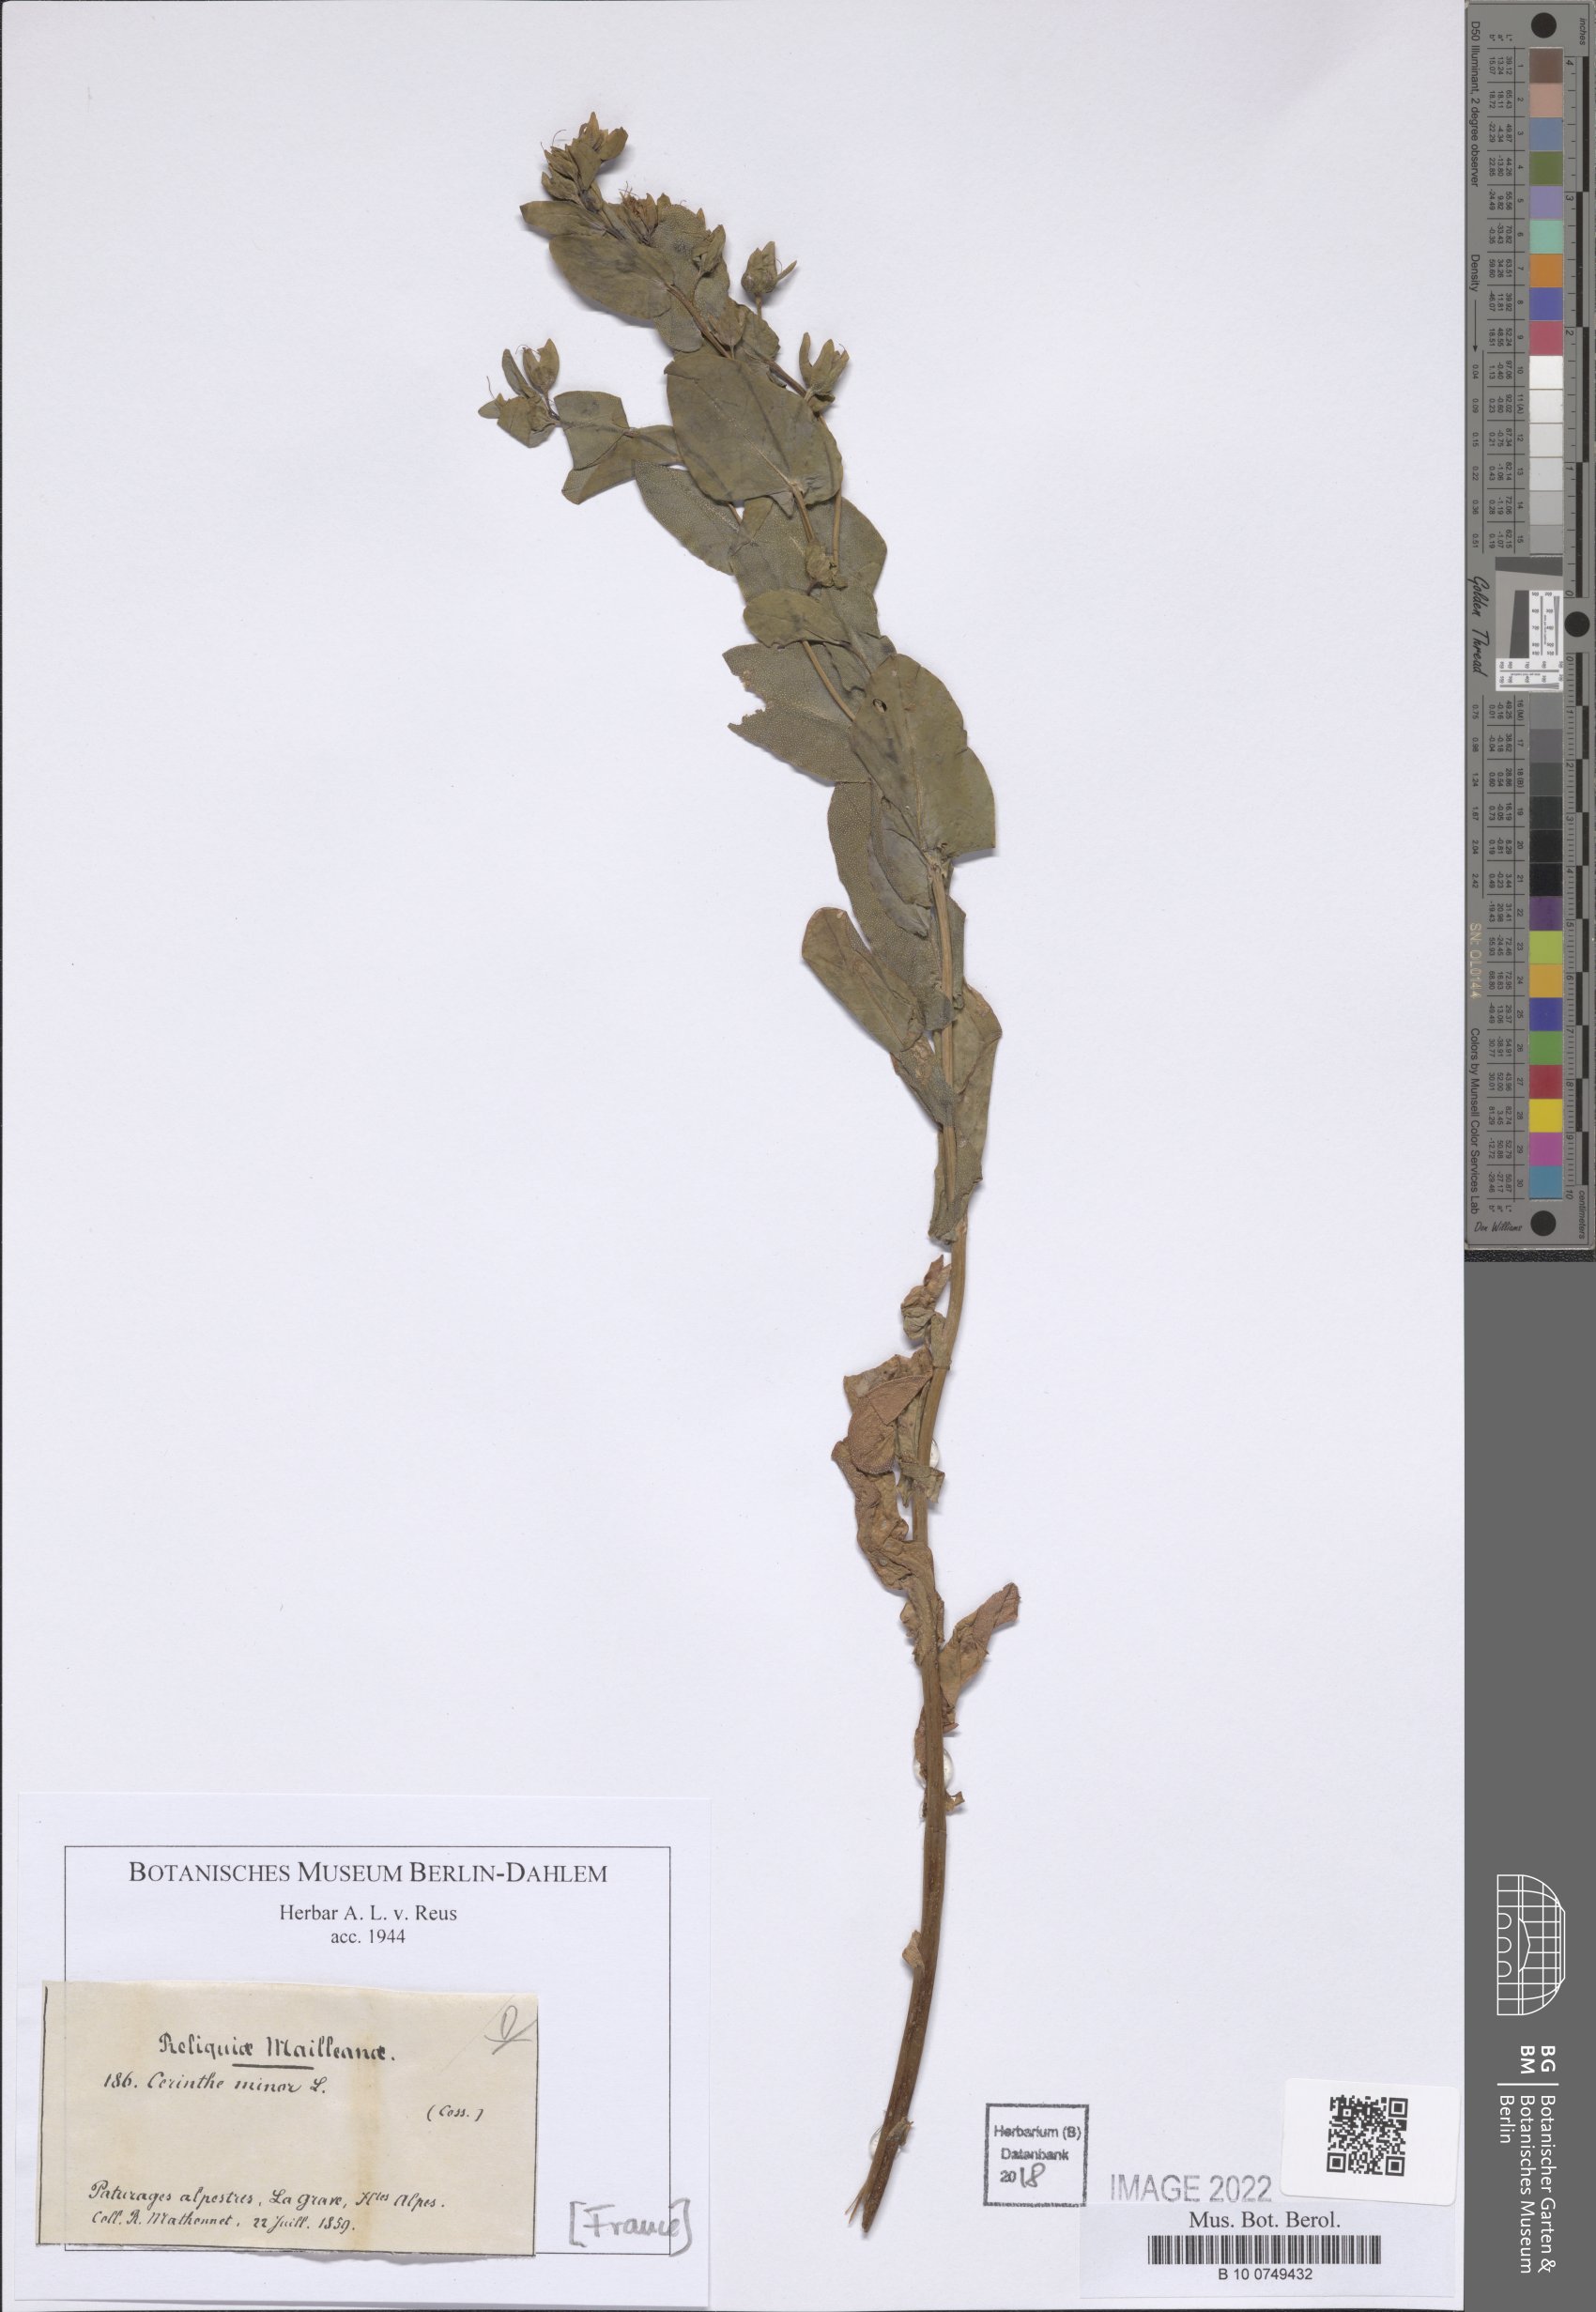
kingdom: Plantae
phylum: Tracheophyta
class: Magnoliopsida
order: Boraginales
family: Boraginaceae
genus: Cerinthe
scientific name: Cerinthe minor
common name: Lesser honeywort
